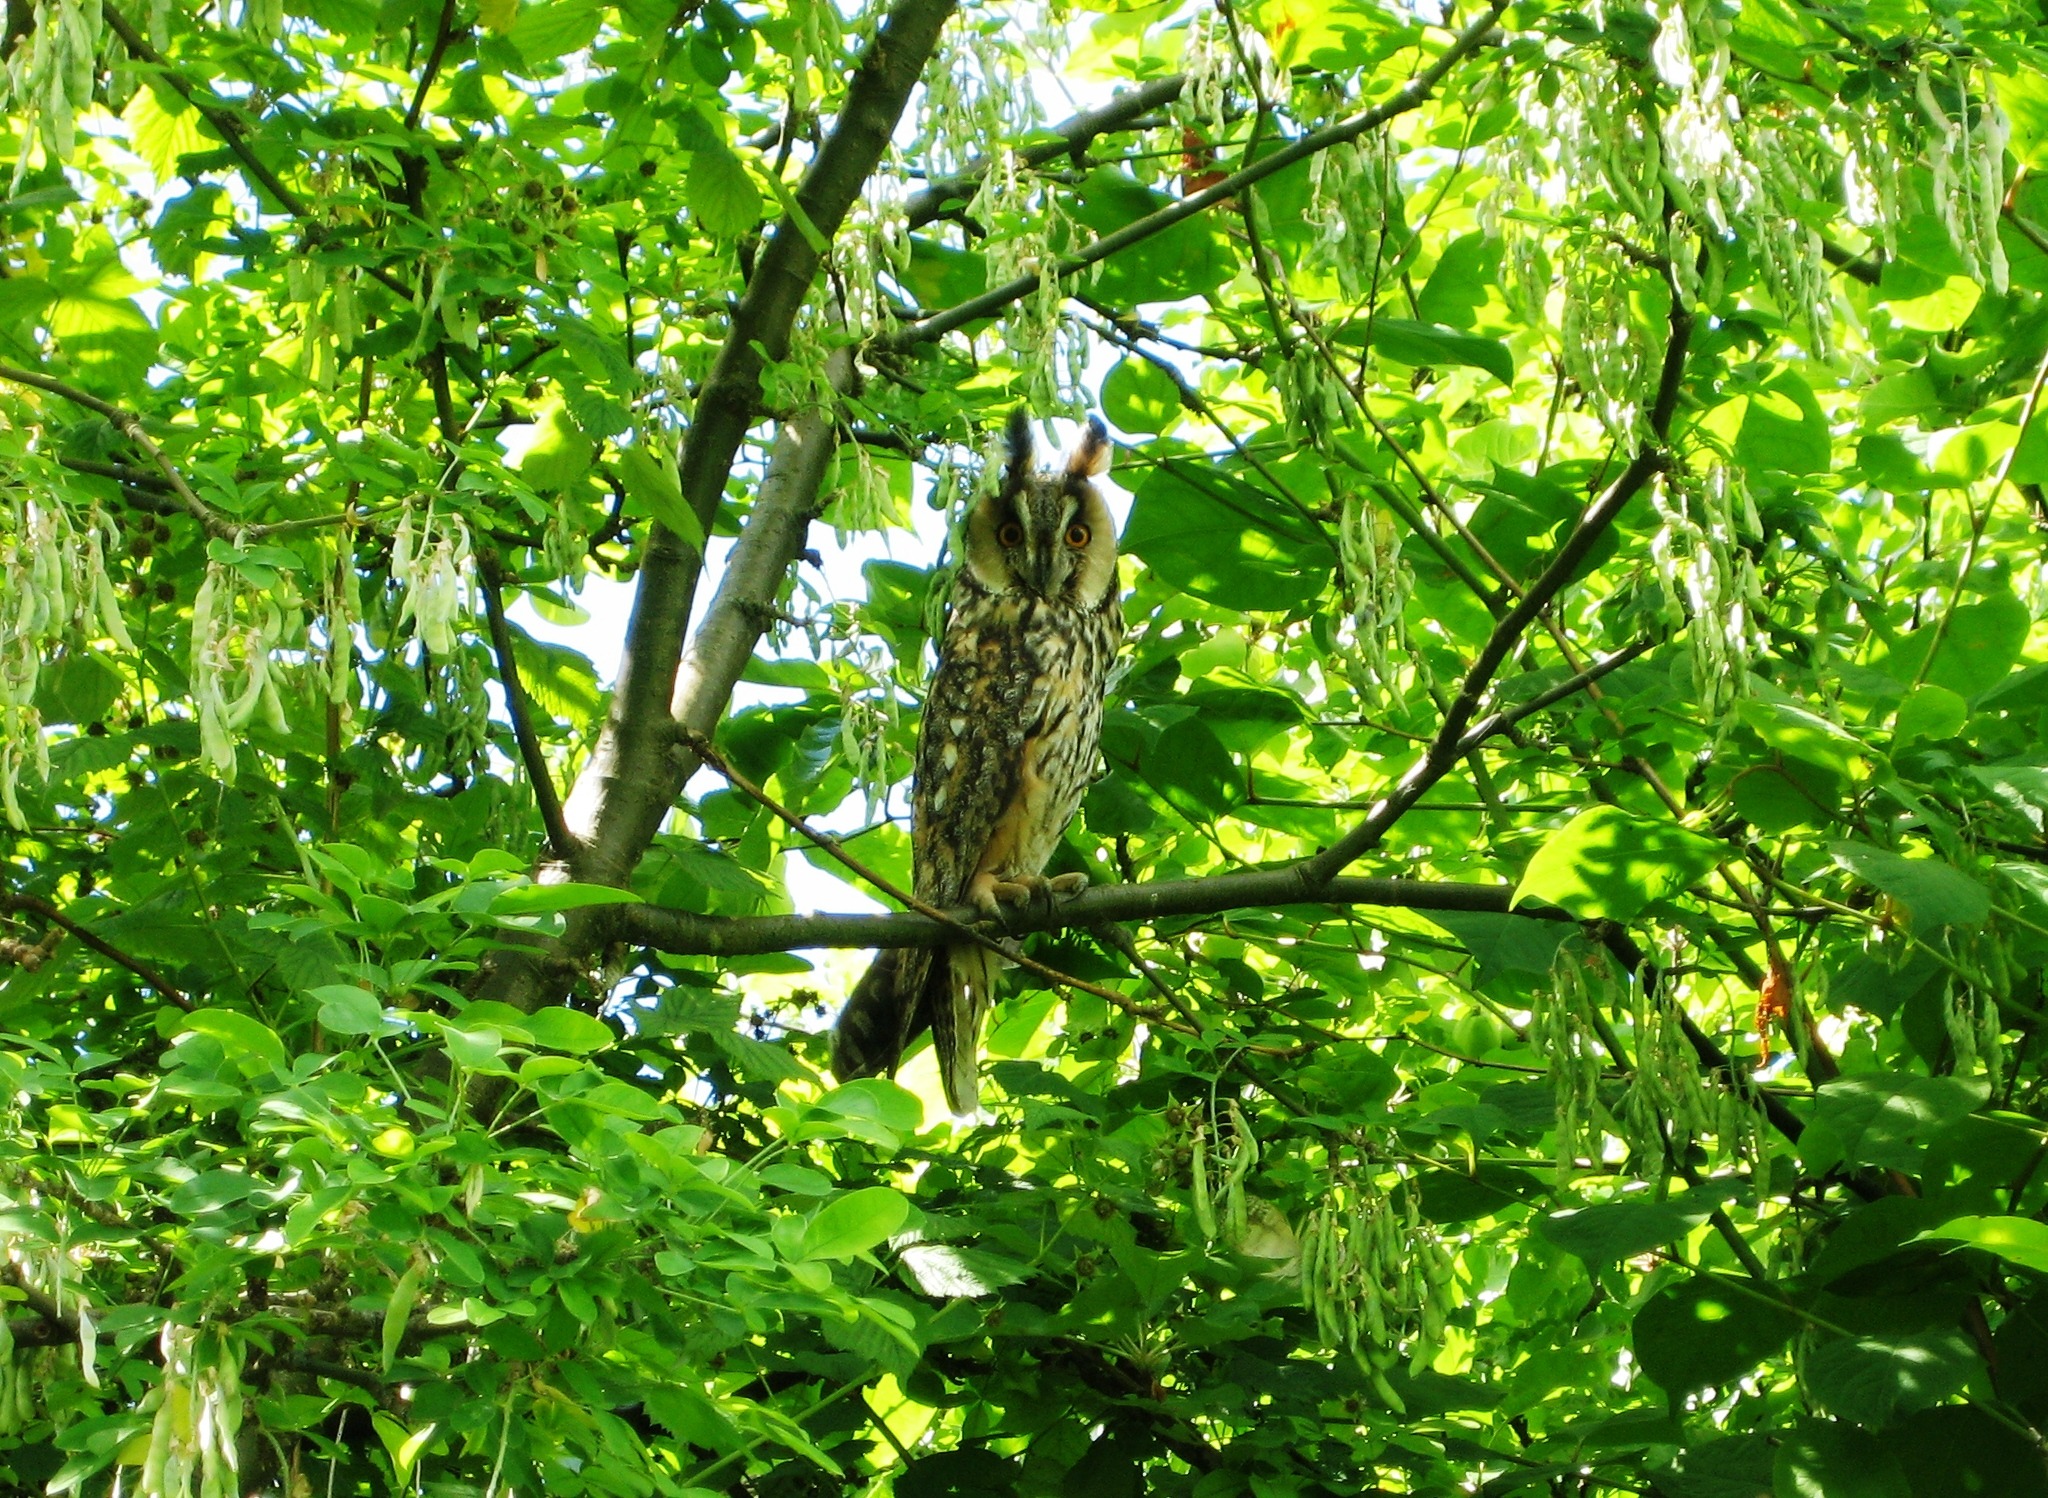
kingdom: Animalia
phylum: Chordata
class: Aves
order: Strigiformes
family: Strigidae
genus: Asio
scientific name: Asio otus
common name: Skovhornugle
